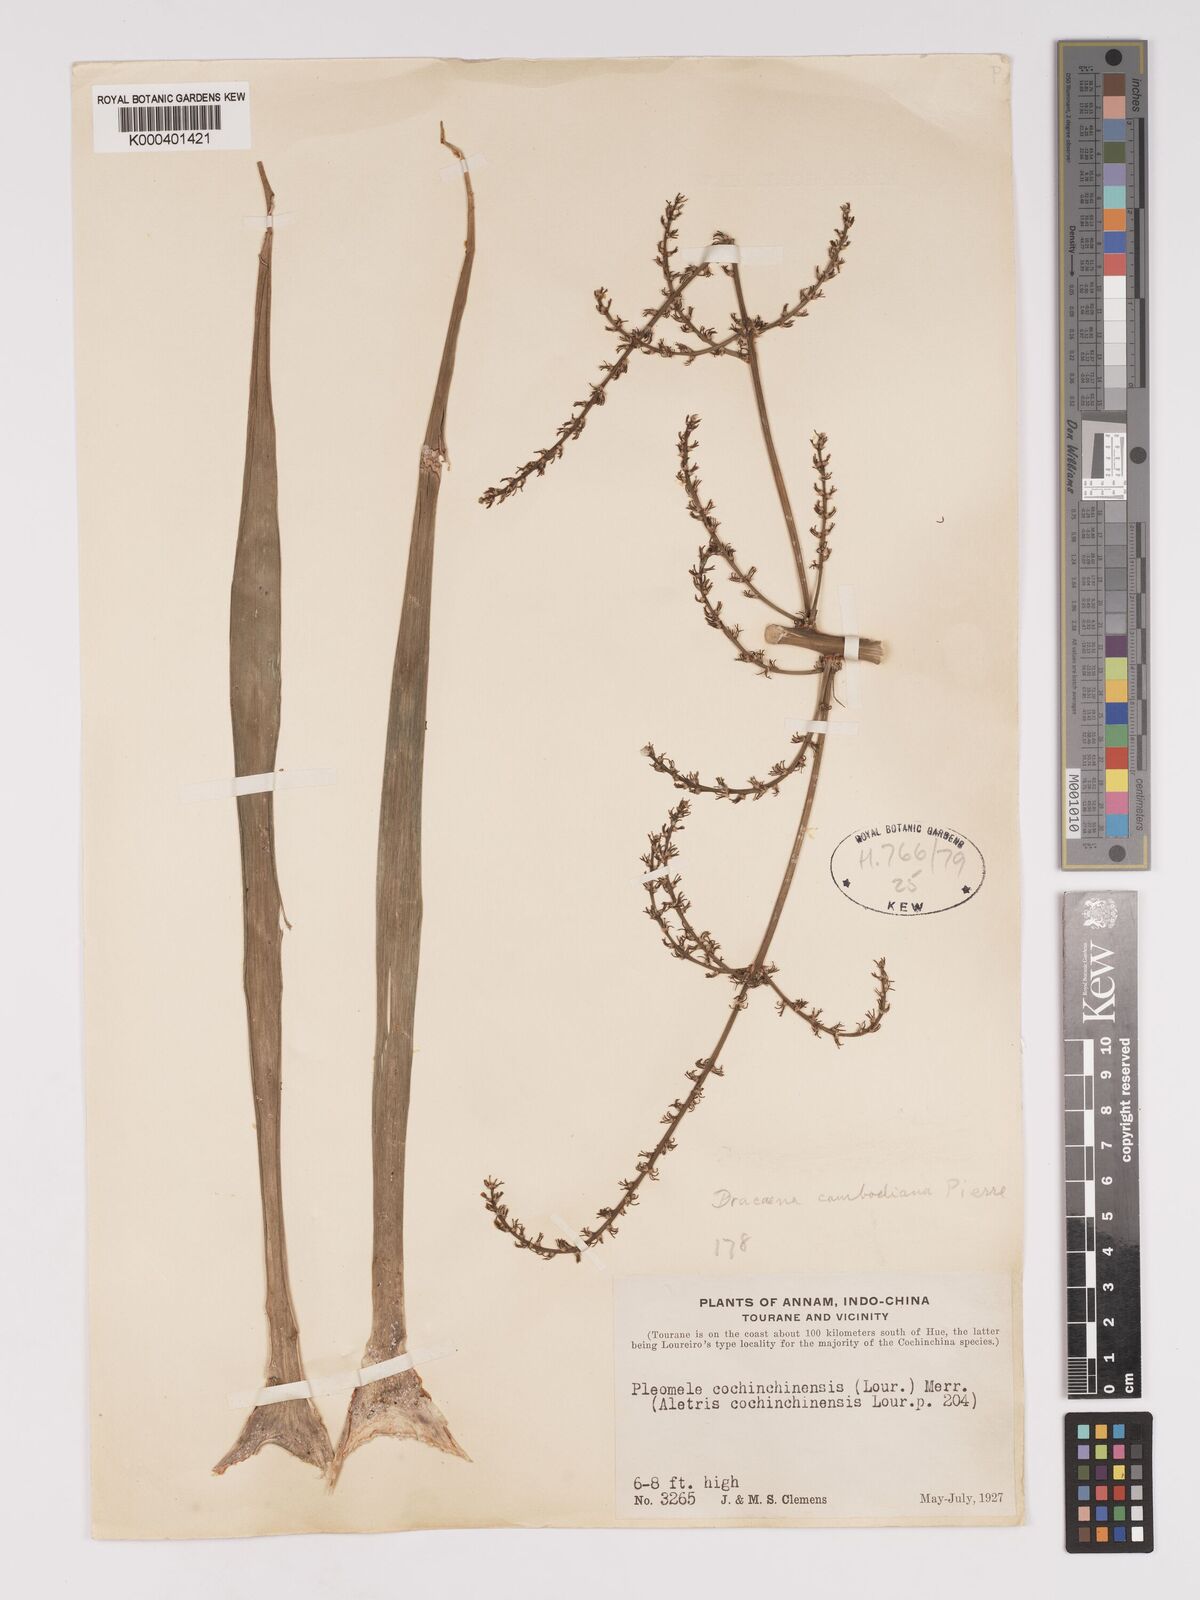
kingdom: Plantae
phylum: Tracheophyta
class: Liliopsida
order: Asparagales
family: Asparagaceae
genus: Dracaena
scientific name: Dracaena cambodiana
